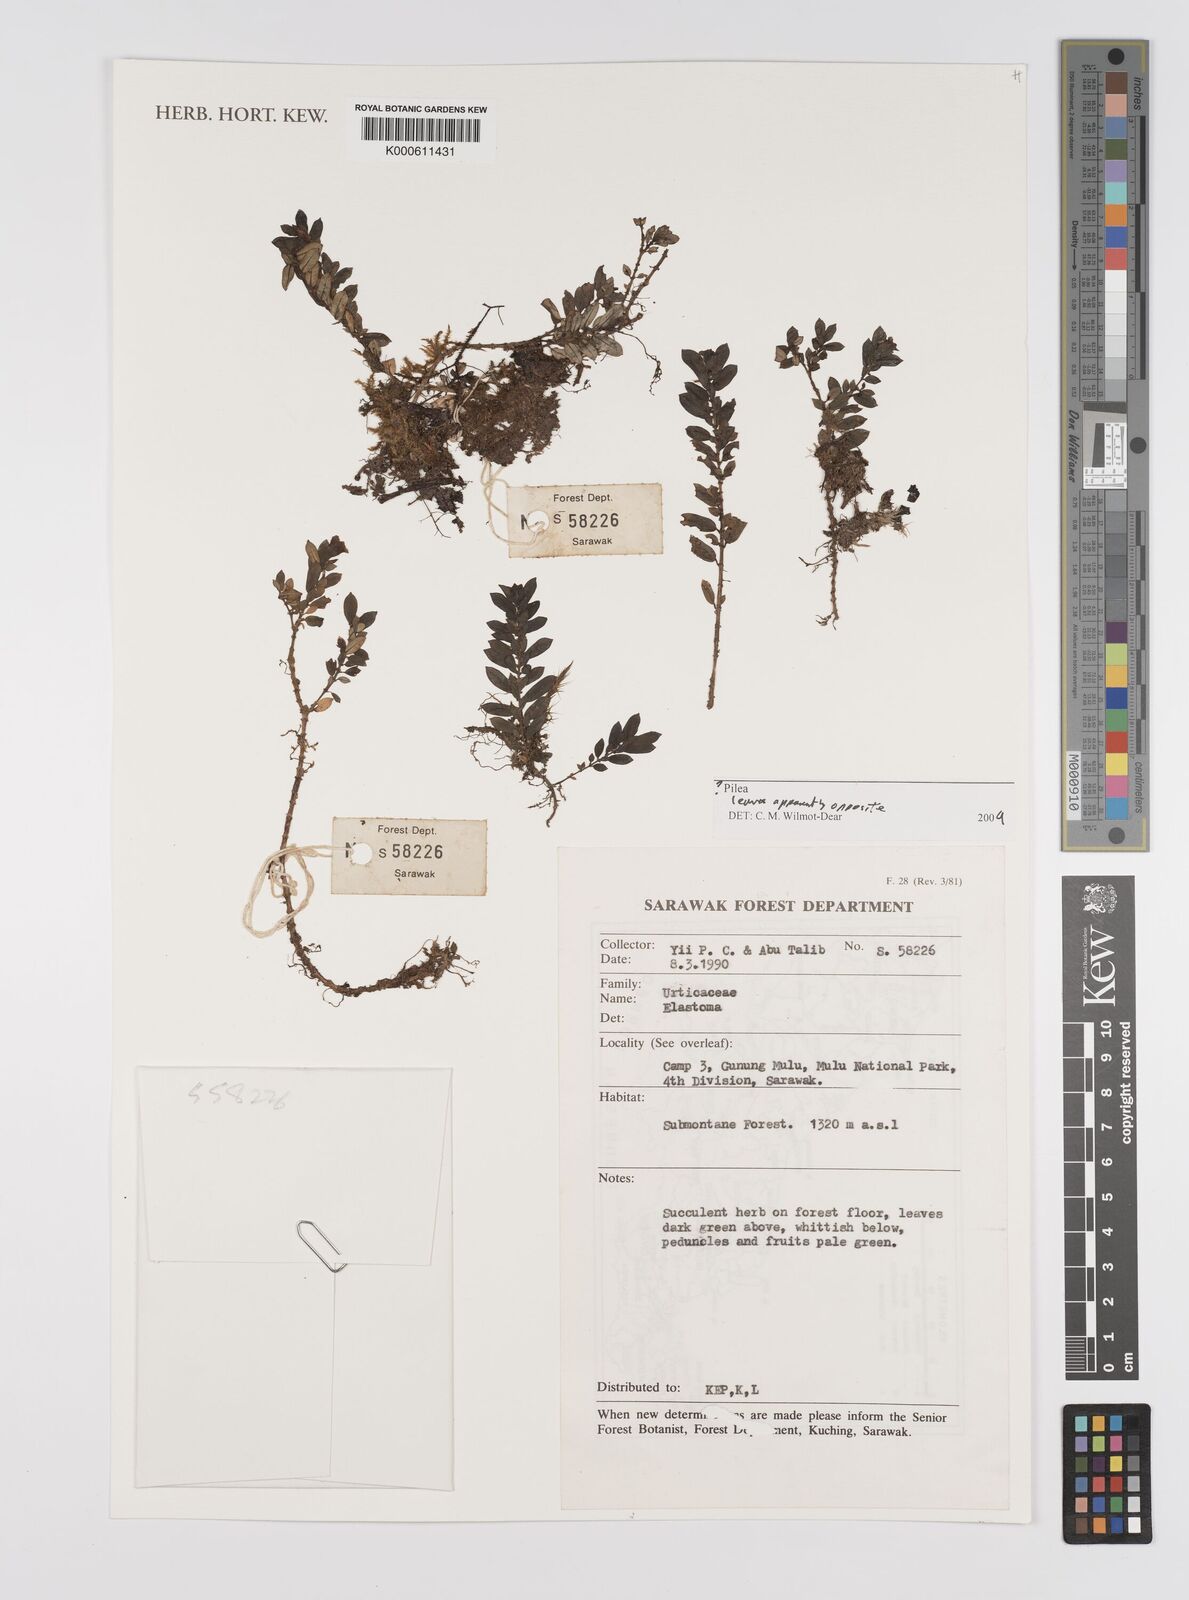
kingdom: Plantae
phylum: Tracheophyta
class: Magnoliopsida
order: Rosales
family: Urticaceae
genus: Pilea
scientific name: Pilea
